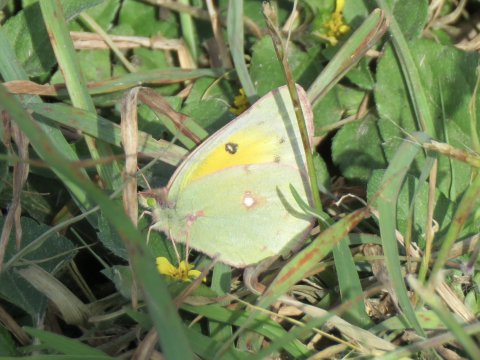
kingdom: Animalia
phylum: Arthropoda
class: Insecta
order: Lepidoptera
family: Pieridae
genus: Colias
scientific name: Colias eurytheme
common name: Orange Sulphur
